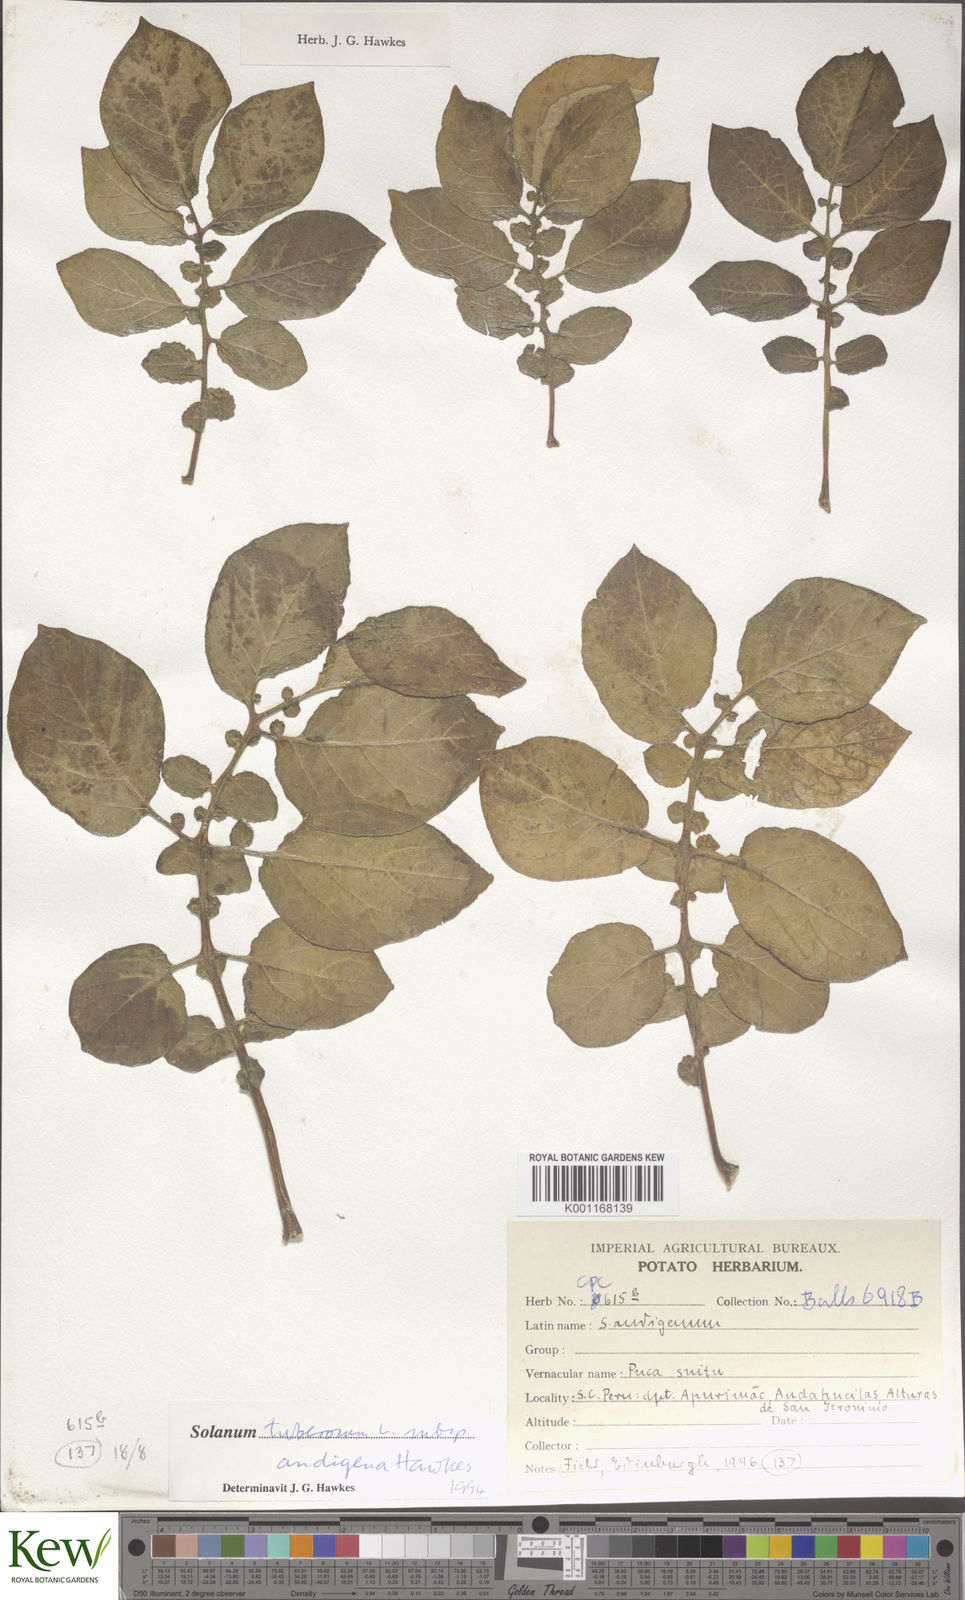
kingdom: Plantae
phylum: Tracheophyta
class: Magnoliopsida
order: Solanales
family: Solanaceae
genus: Solanum
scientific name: Solanum tuberosum
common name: Potato
